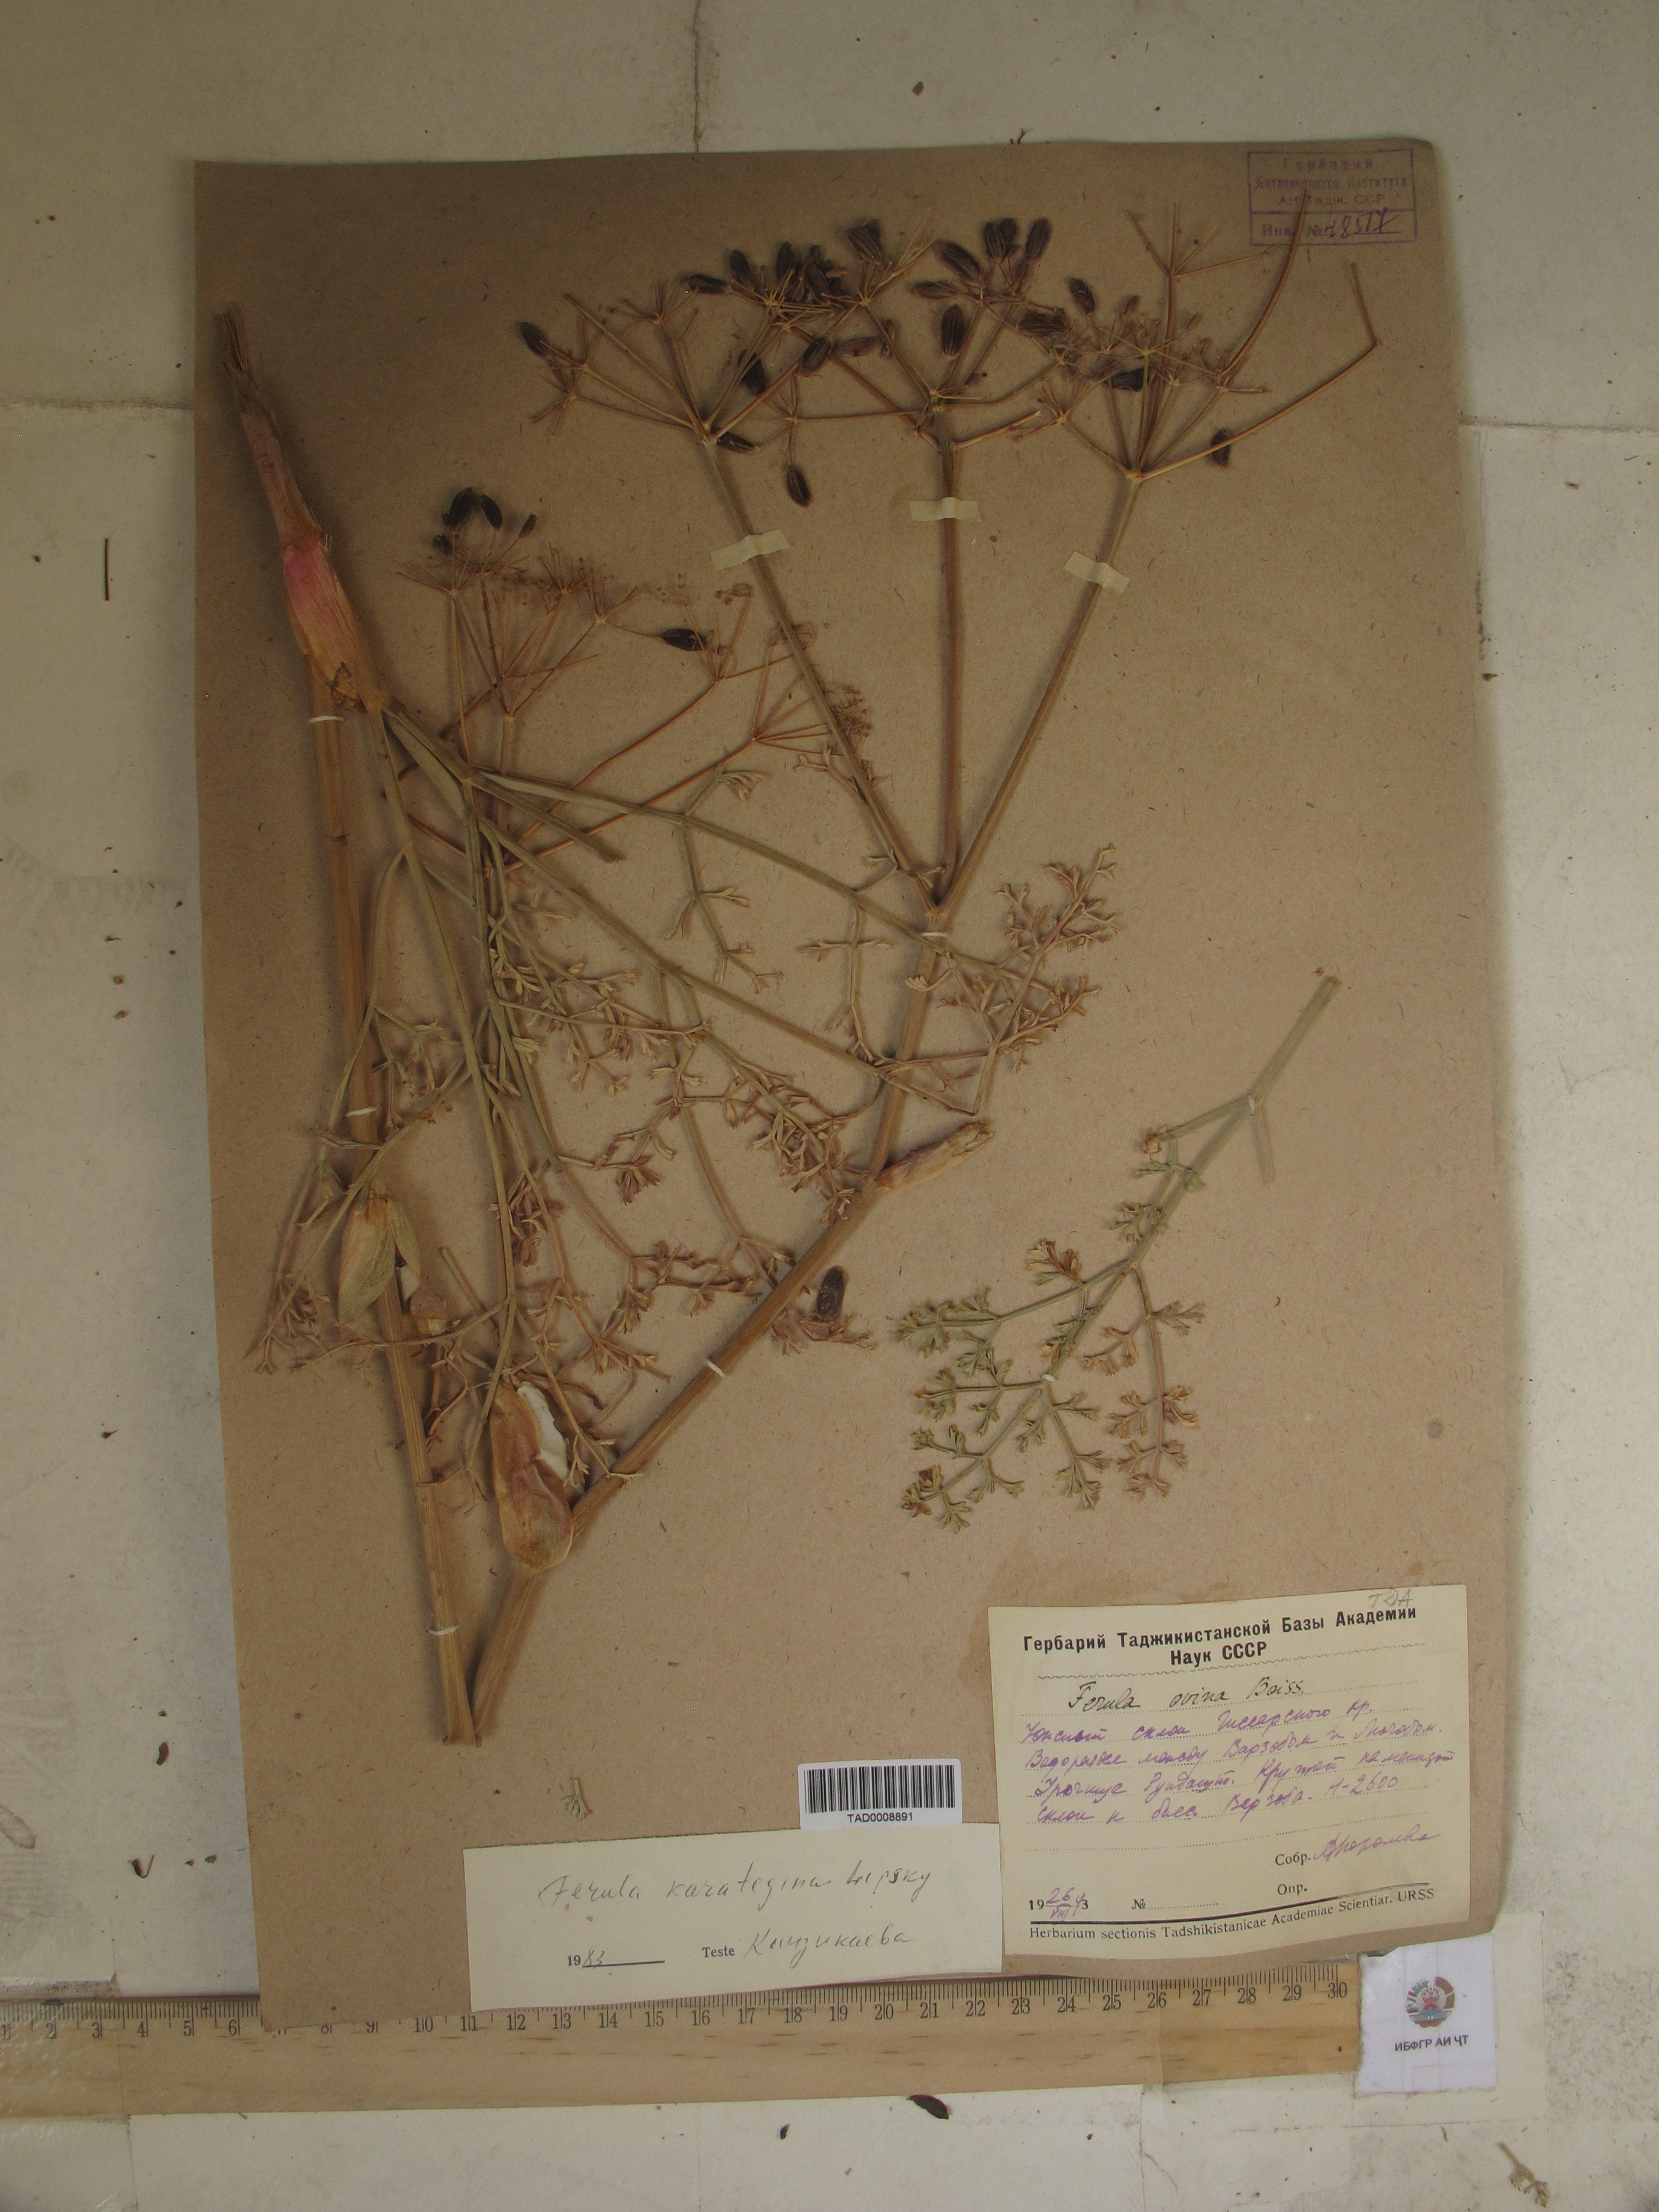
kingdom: Plantae
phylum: Tracheophyta
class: Magnoliopsida
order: Apiales
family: Apiaceae
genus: Ferula
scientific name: Ferula karategina
